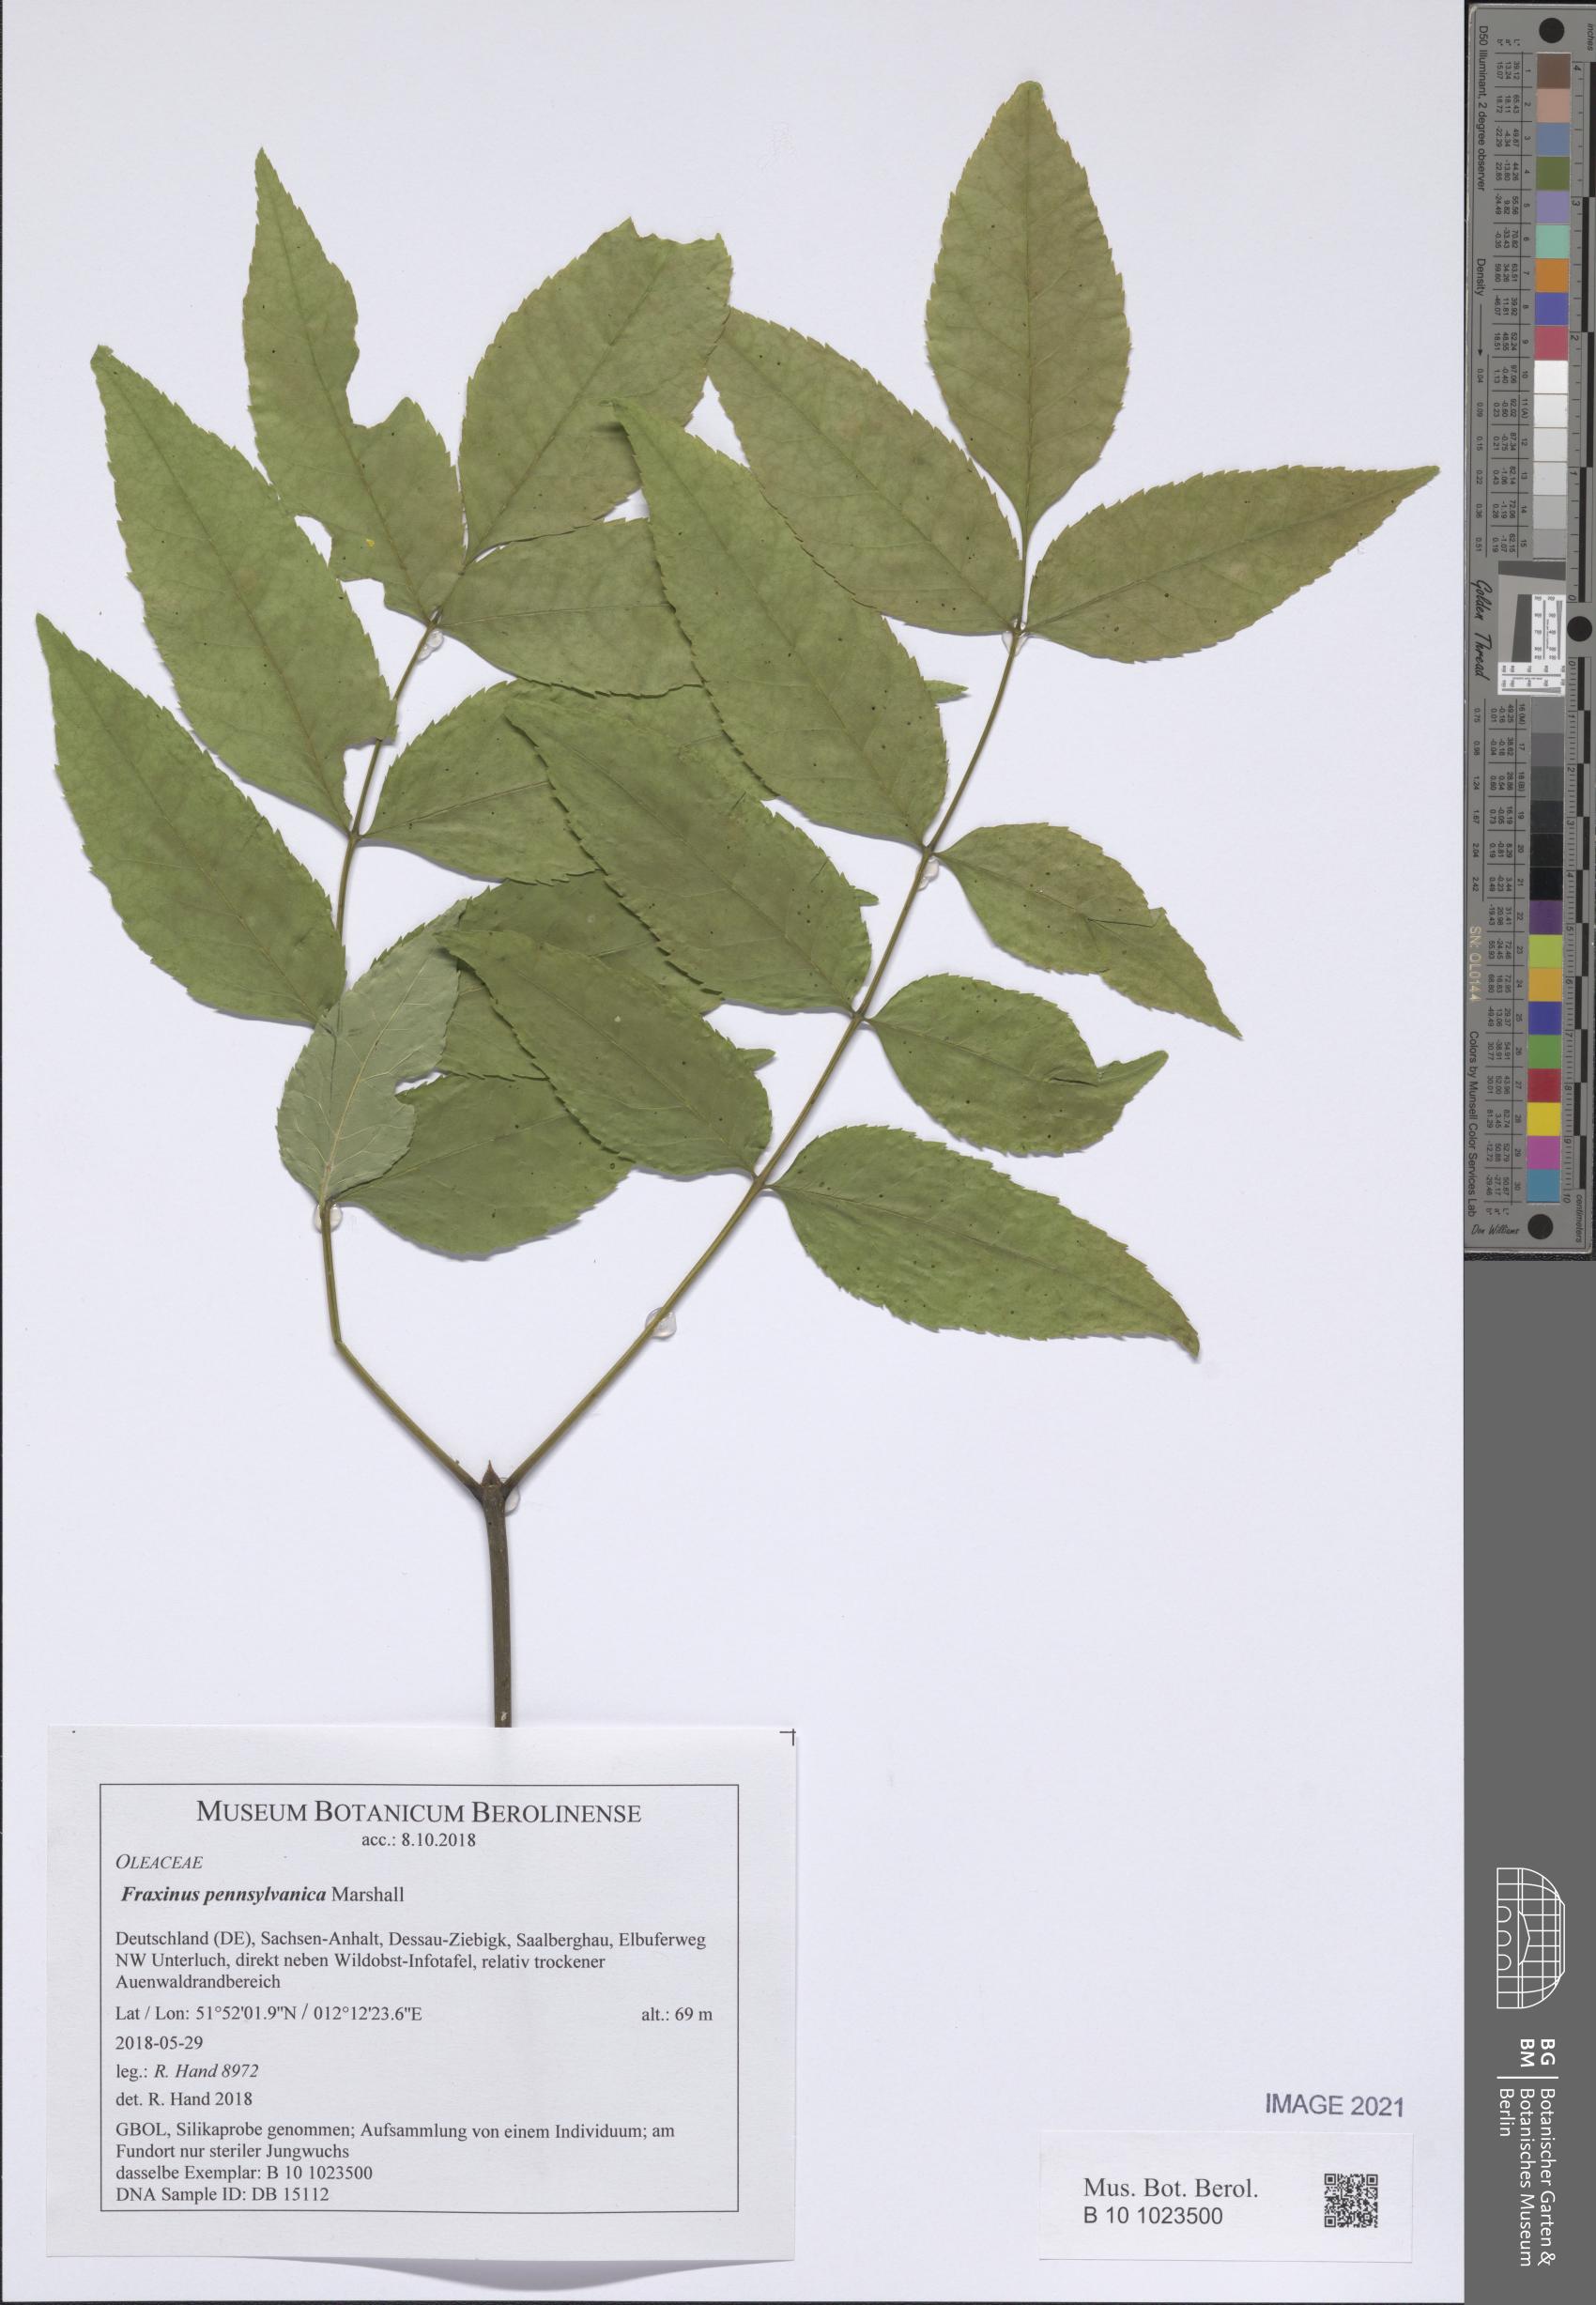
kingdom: Plantae
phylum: Tracheophyta
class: Magnoliopsida
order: Lamiales
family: Oleaceae
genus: Fraxinus
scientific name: Fraxinus pennsylvanica
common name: Green ash
